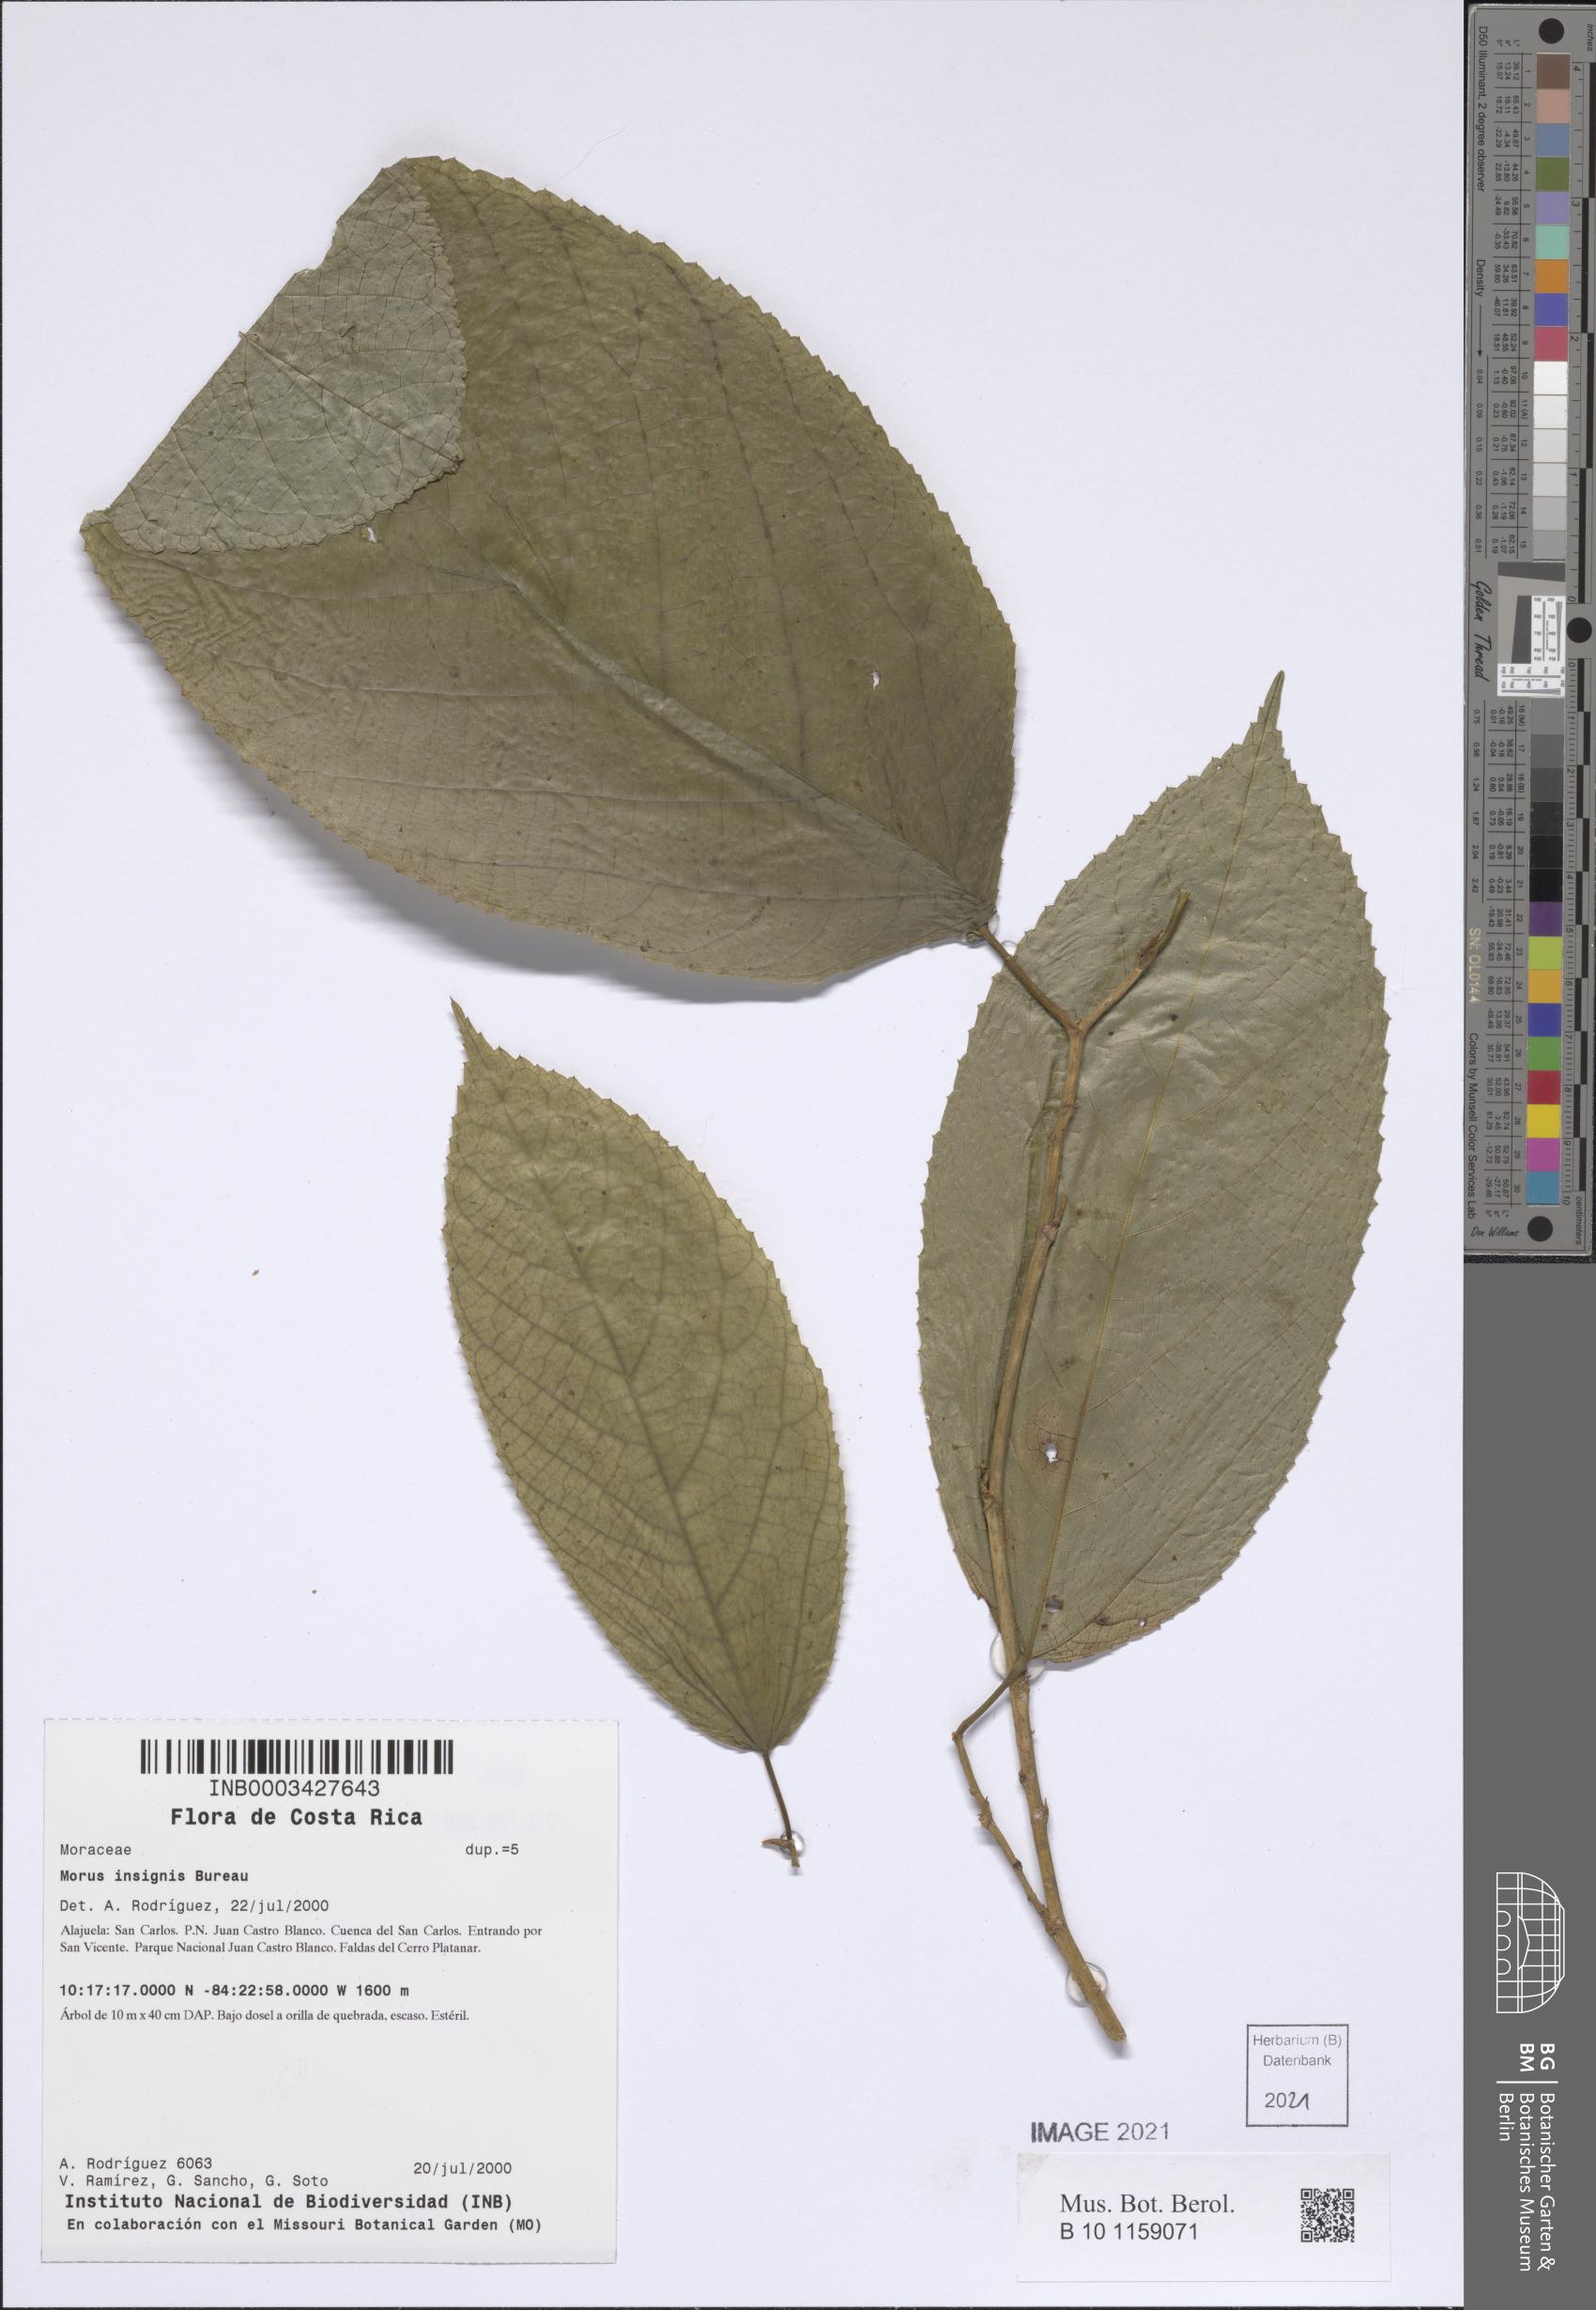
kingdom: Plantae
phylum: Tracheophyta
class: Magnoliopsida
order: Rosales
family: Moraceae
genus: Paratrophis
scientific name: Paratrophis insignis
